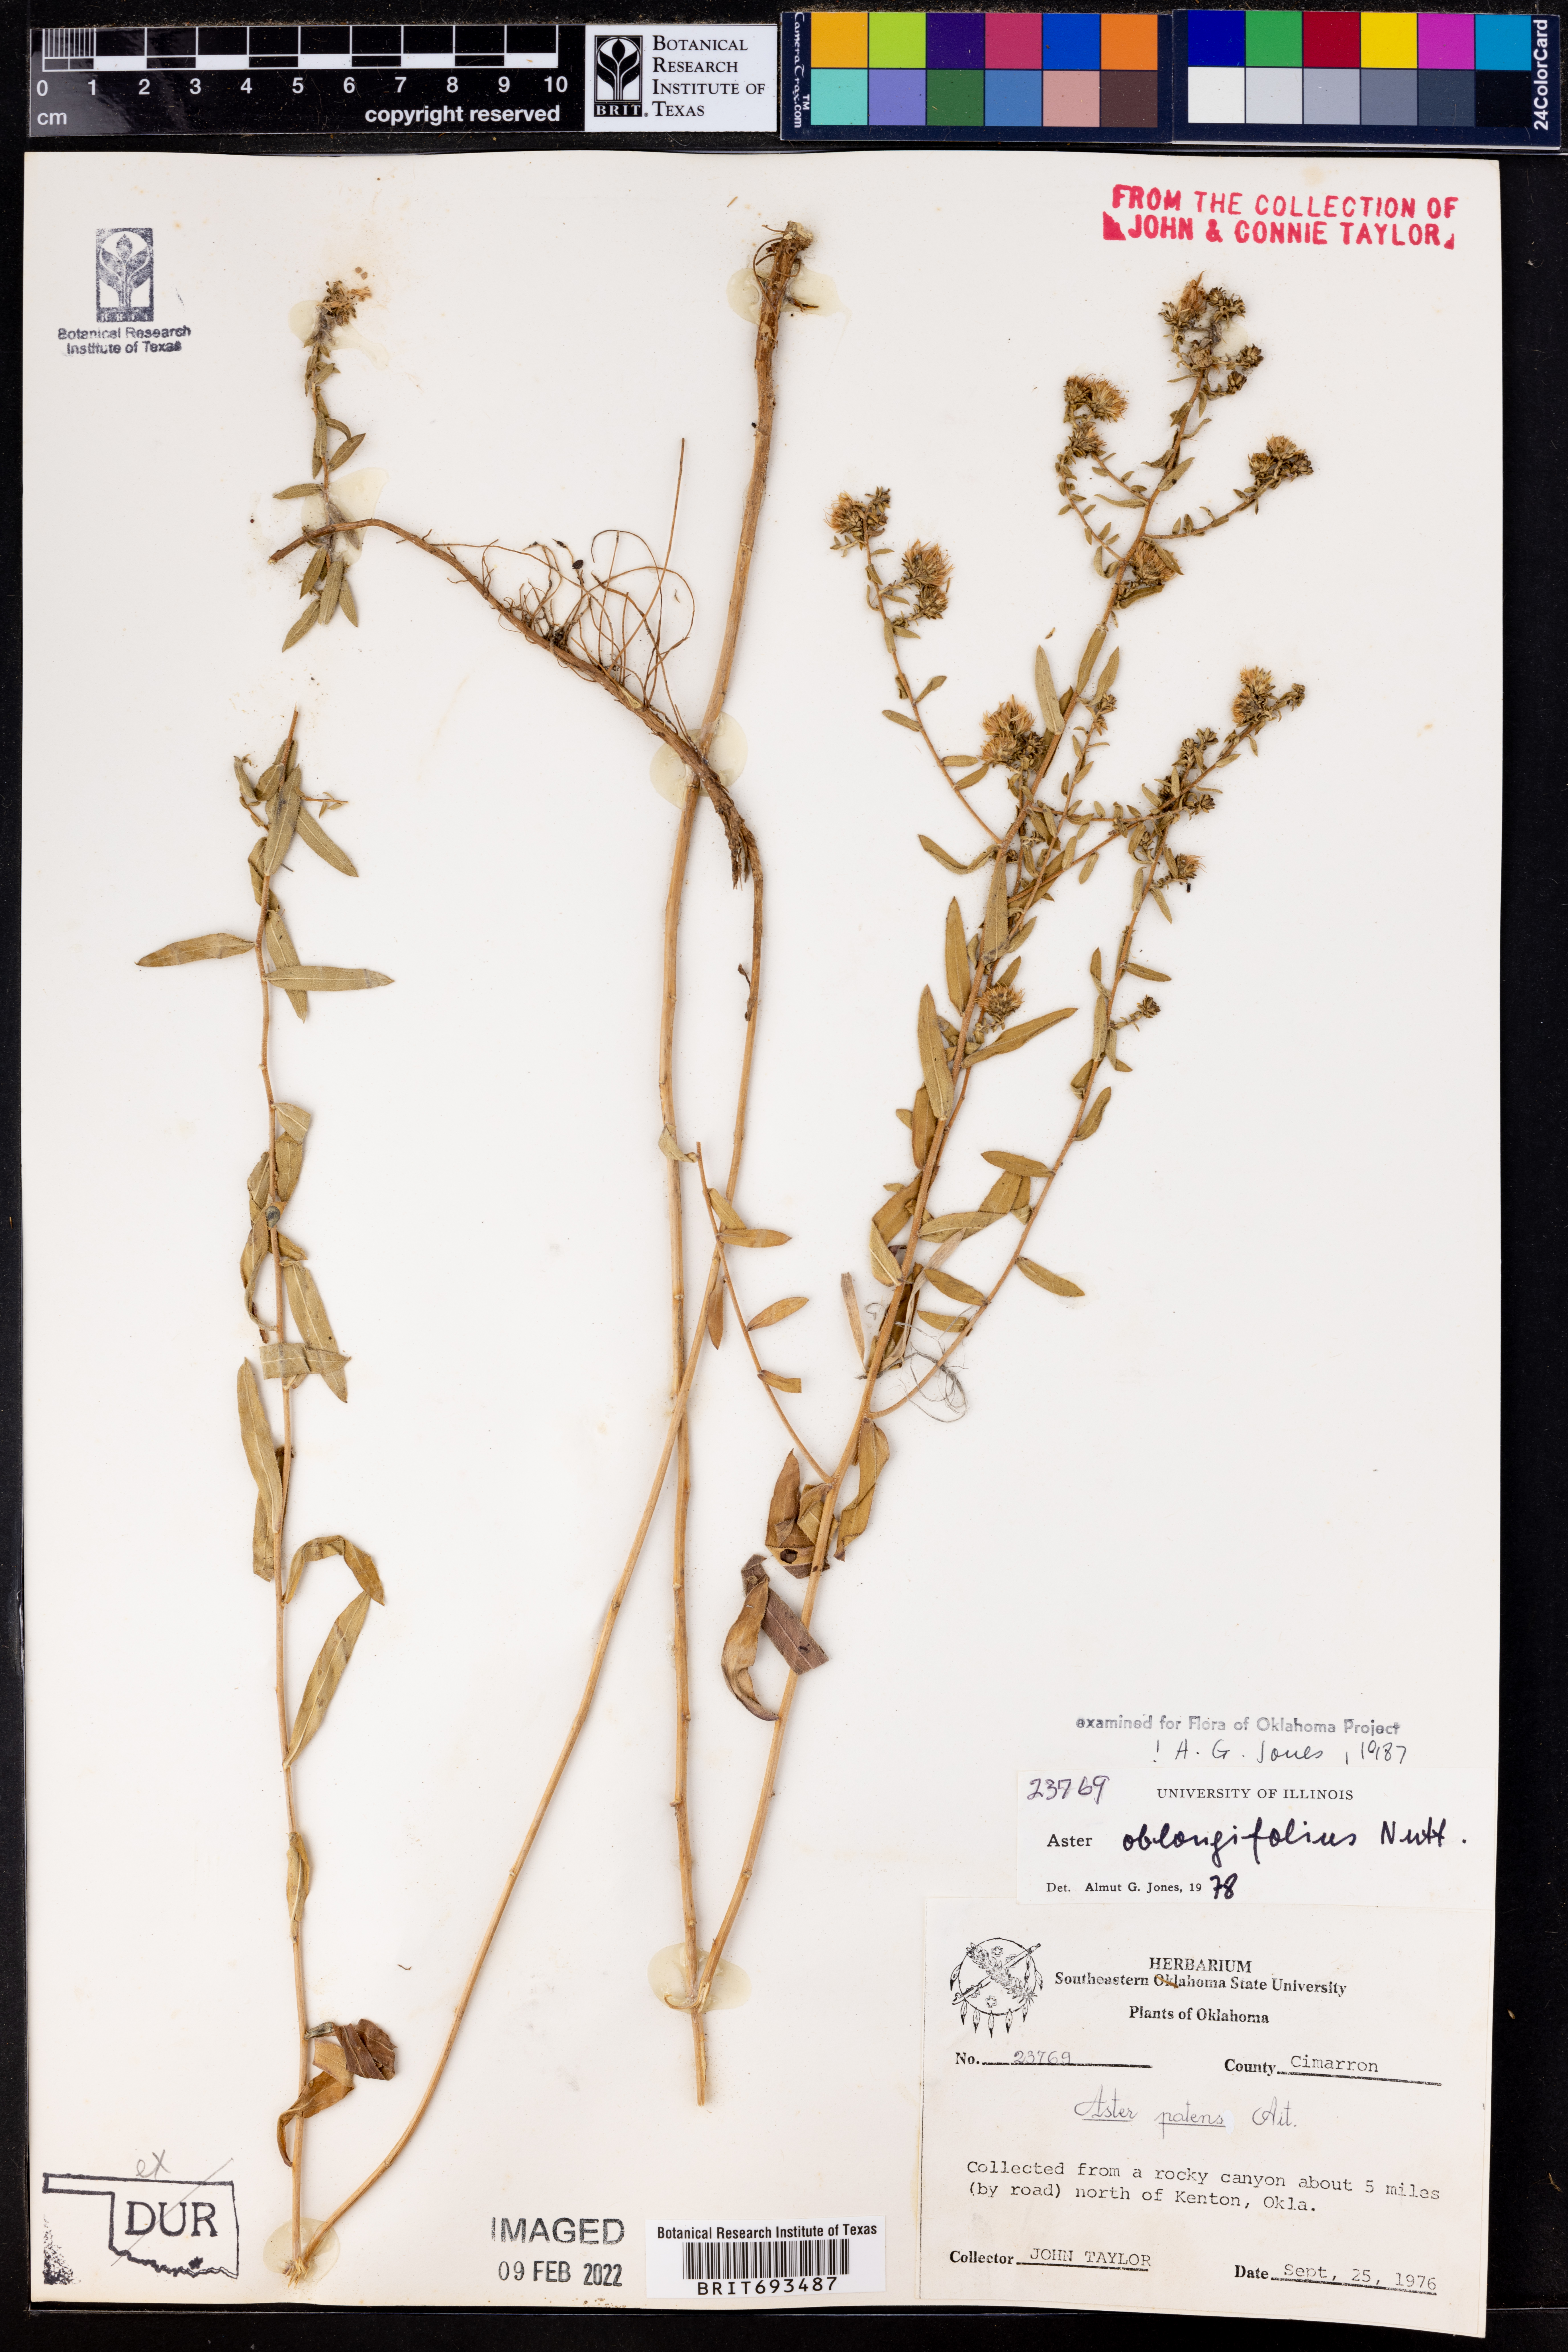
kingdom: Plantae
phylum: Tracheophyta
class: Magnoliopsida
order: Asterales
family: Asteraceae
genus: Symphyotrichum
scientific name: Symphyotrichum oblongifolium
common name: Aromatic aster
